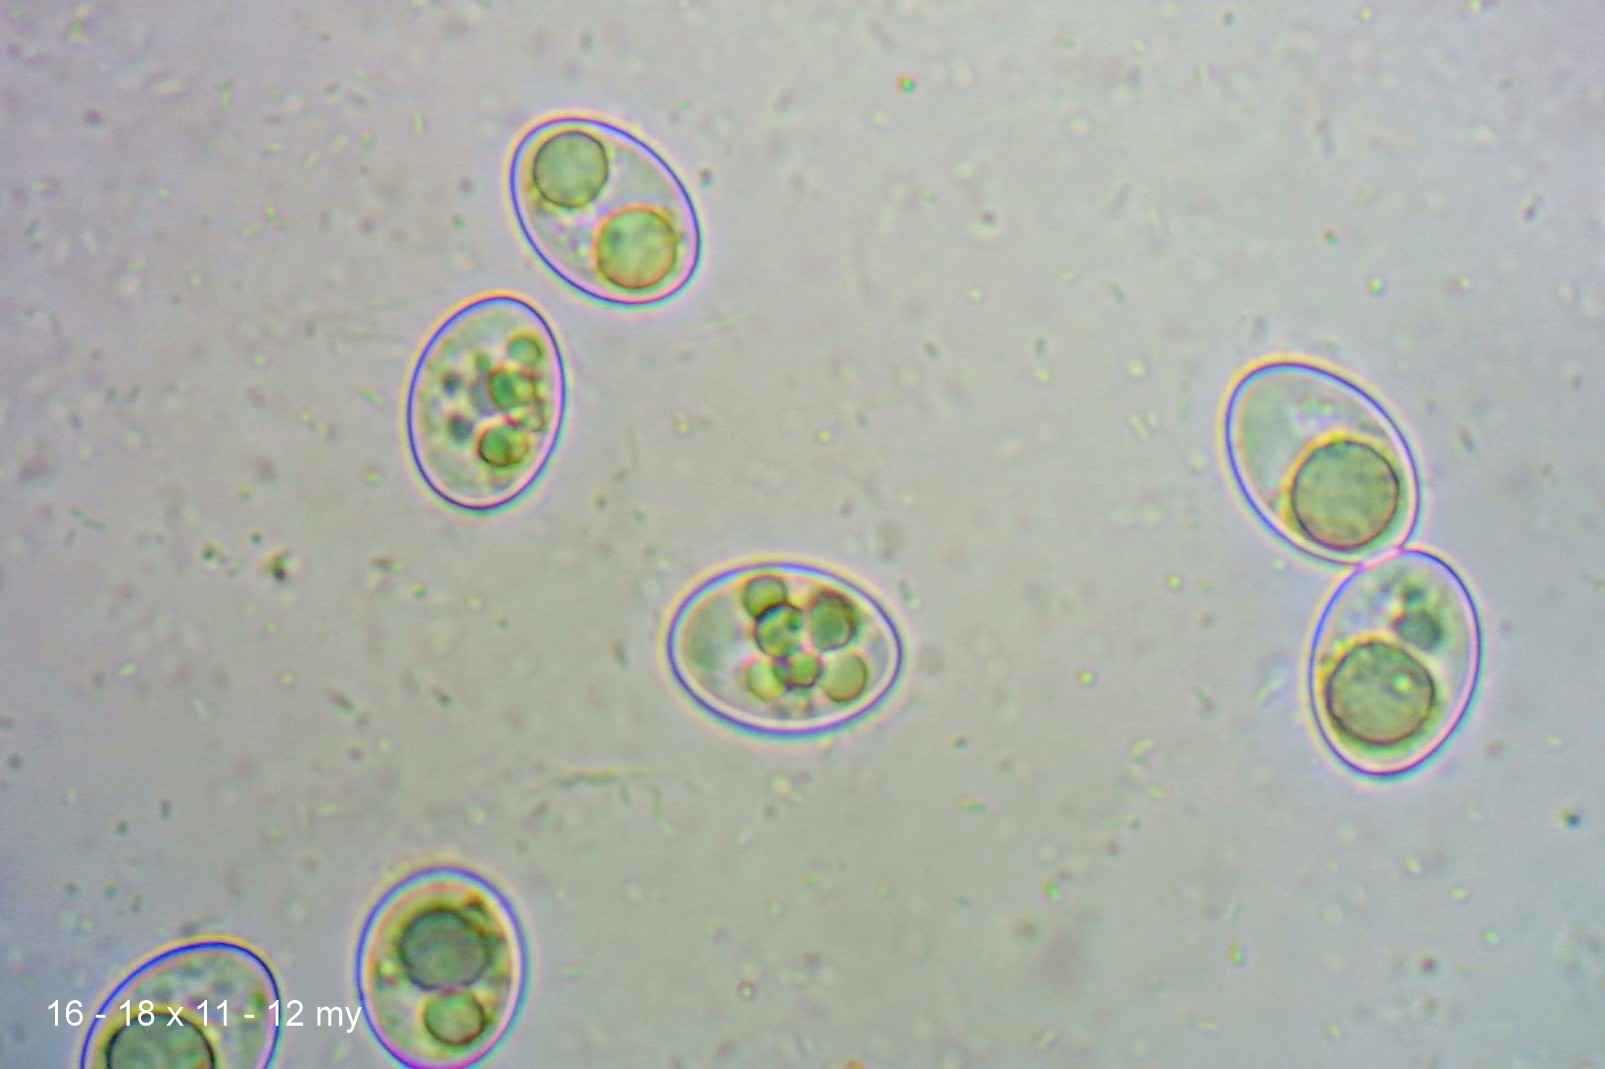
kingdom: Fungi
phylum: Ascomycota
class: Pezizomycetes
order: Pezizales
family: Pyronemataceae
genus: Inermisia
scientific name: Inermisia gyalectoides
